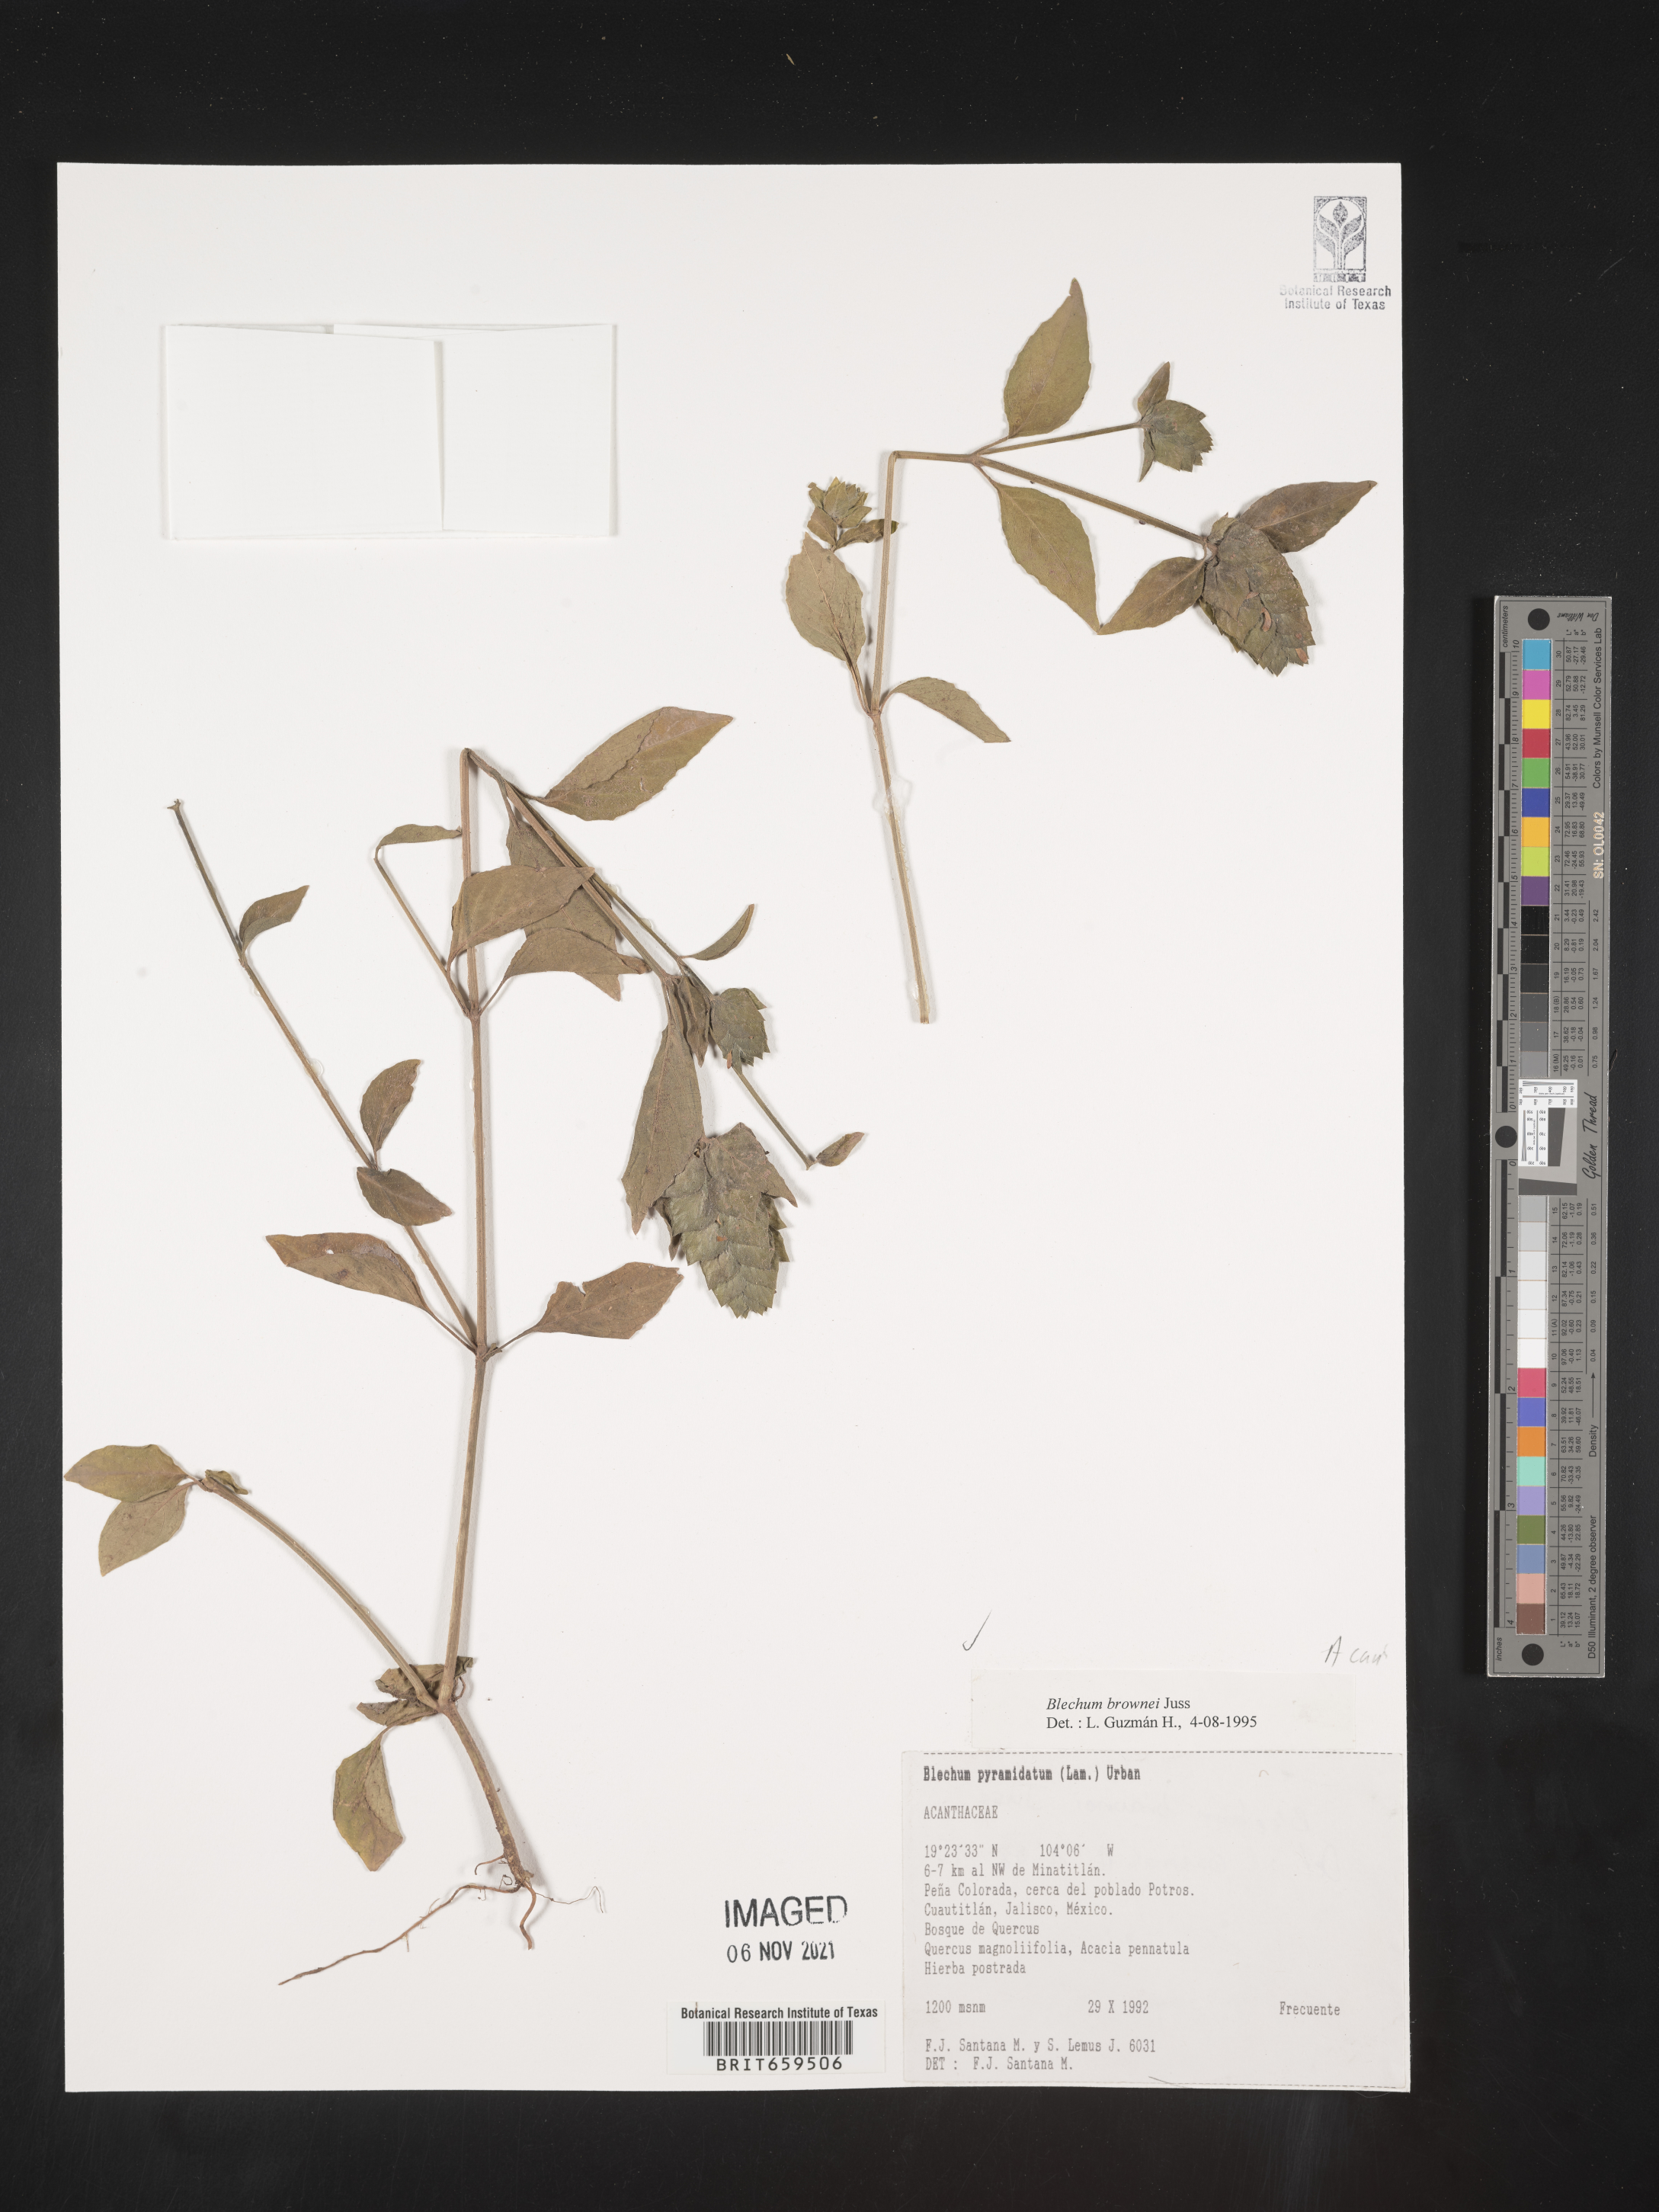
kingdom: Plantae
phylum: Tracheophyta
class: Polypodiopsida
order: Polypodiales
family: Blechnaceae
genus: Blechum
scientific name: Blechum
